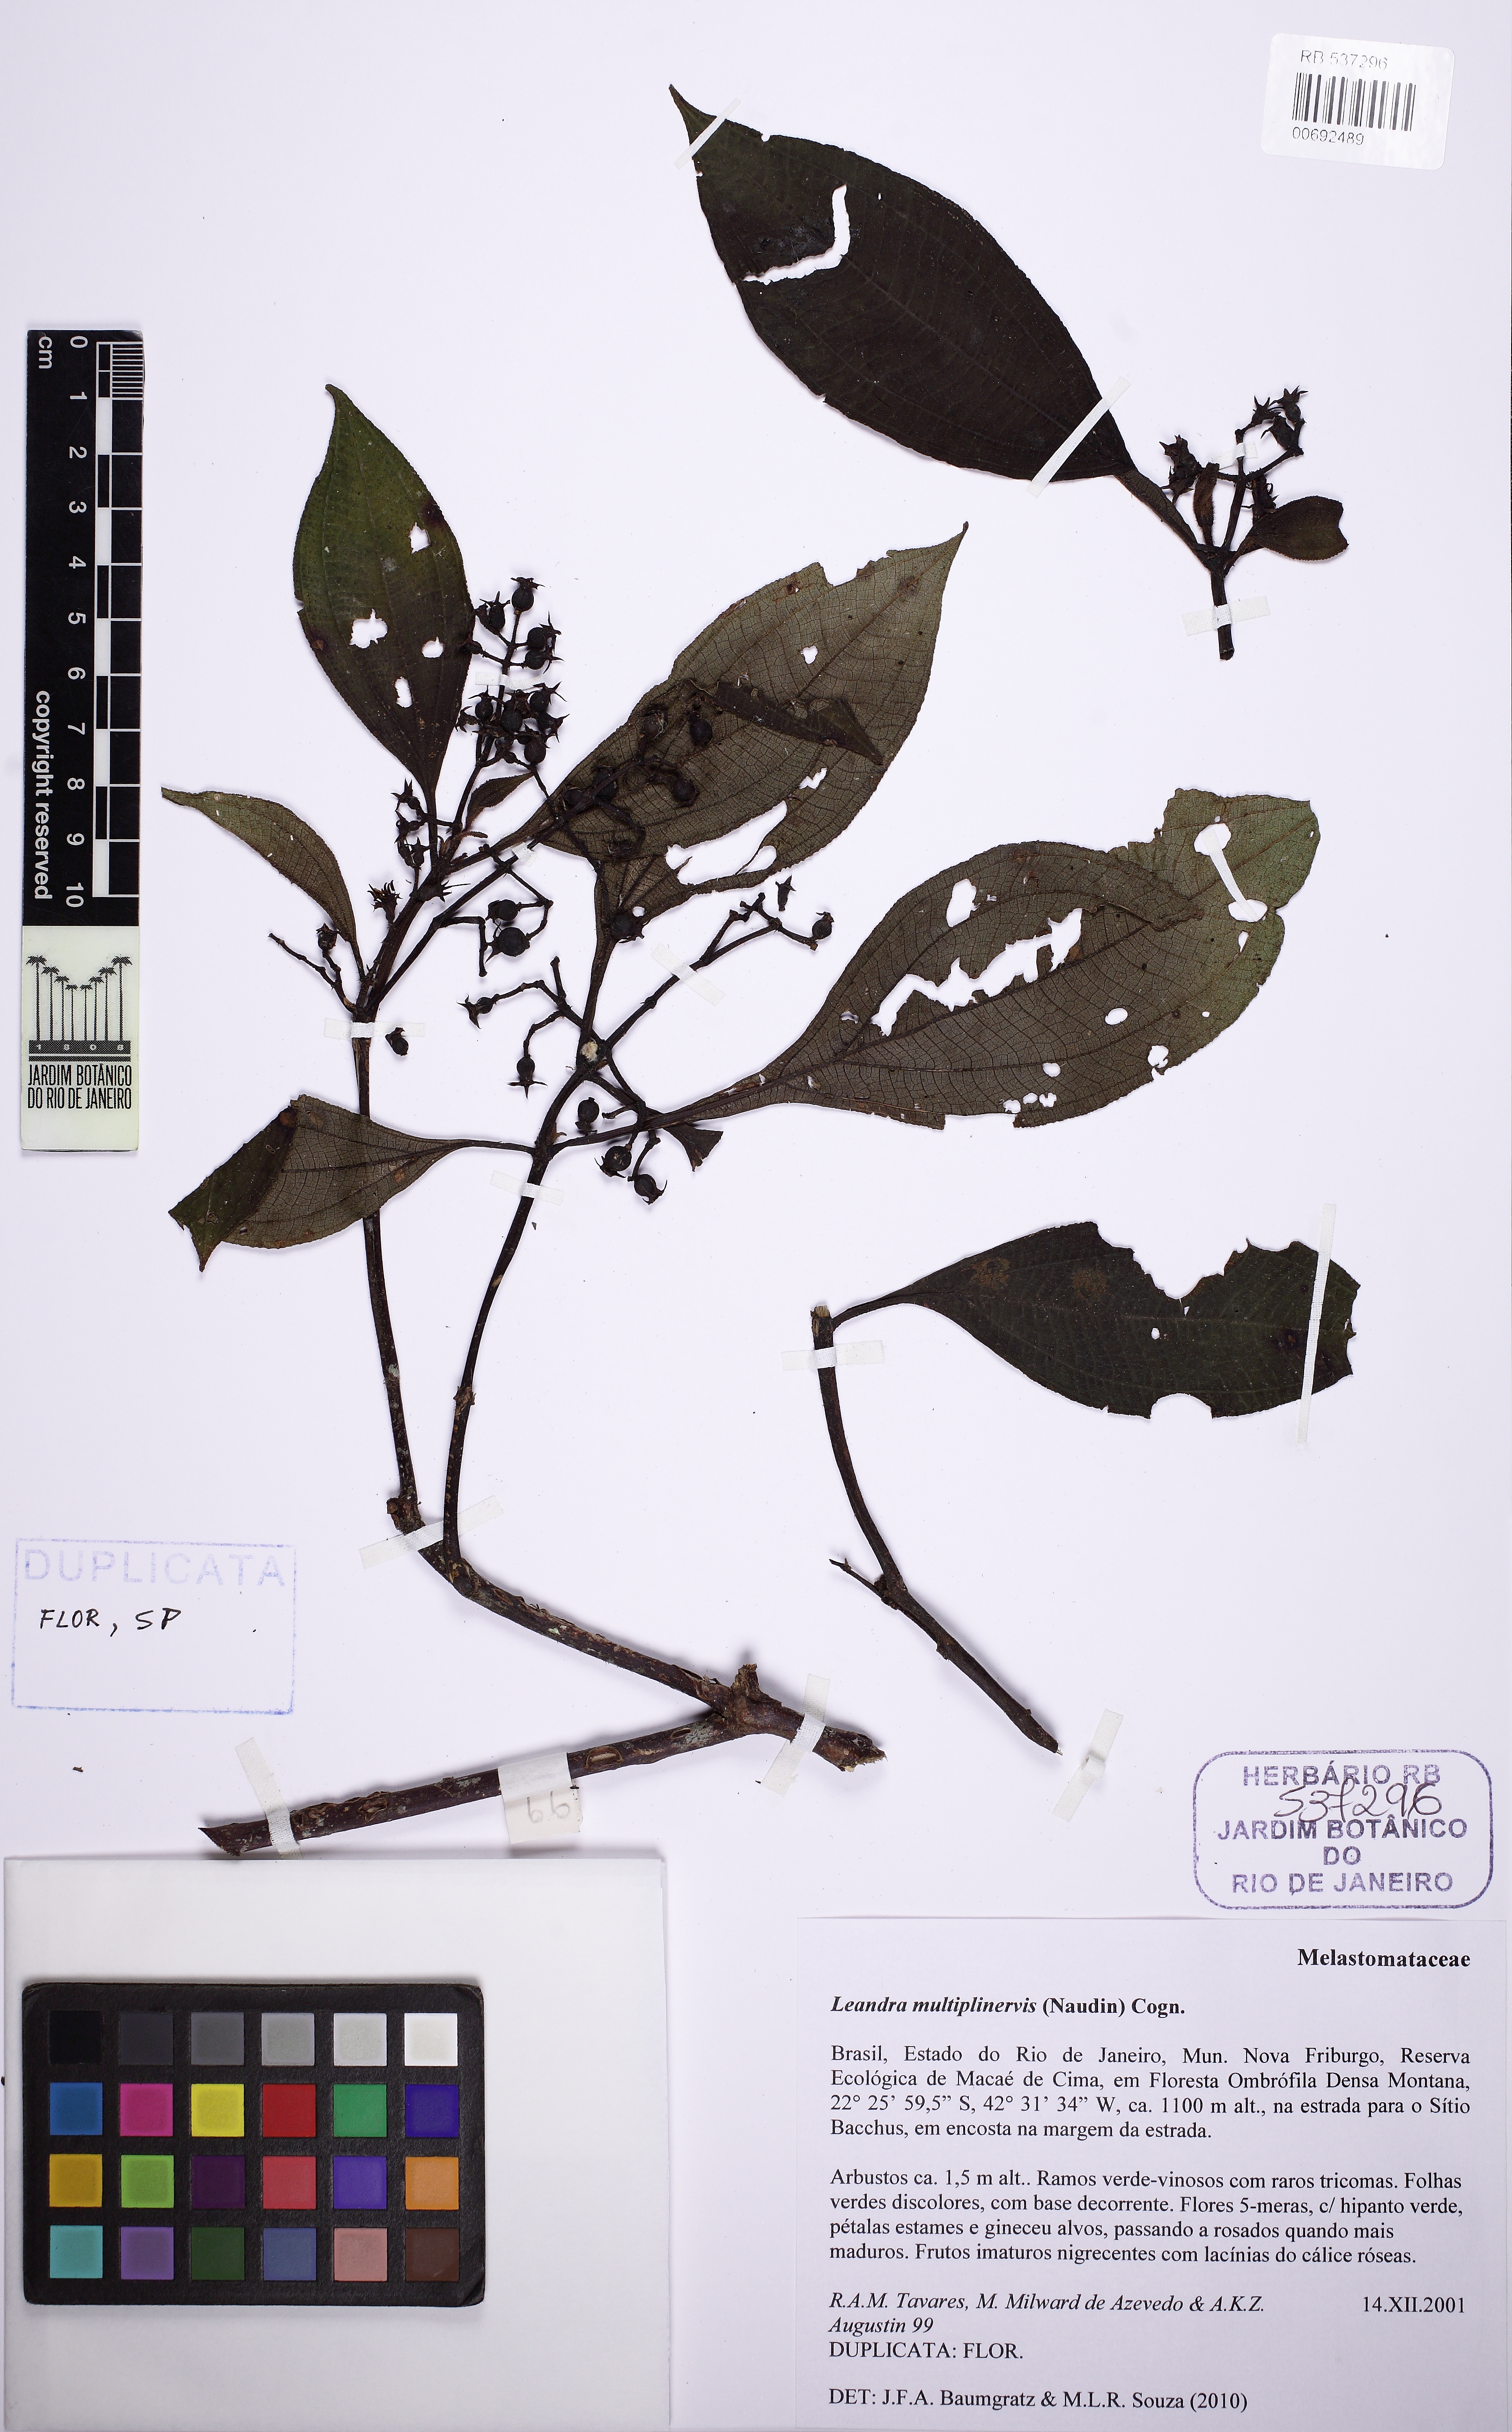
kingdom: Plantae
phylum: Tracheophyta
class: Magnoliopsida
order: Myrtales
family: Melastomataceae
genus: Miconia
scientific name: Miconia oocarpa
